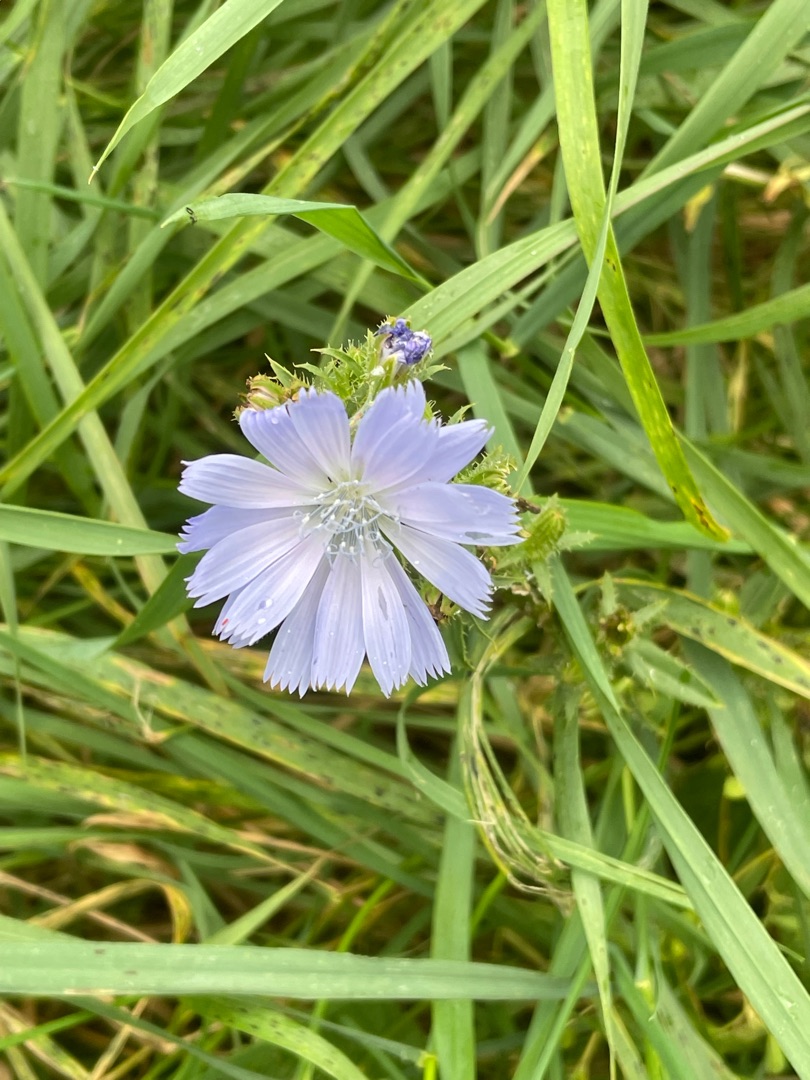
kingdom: Plantae
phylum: Tracheophyta
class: Magnoliopsida
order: Asterales
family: Asteraceae
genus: Cichorium
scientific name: Cichorium intybus
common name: Cikorie
